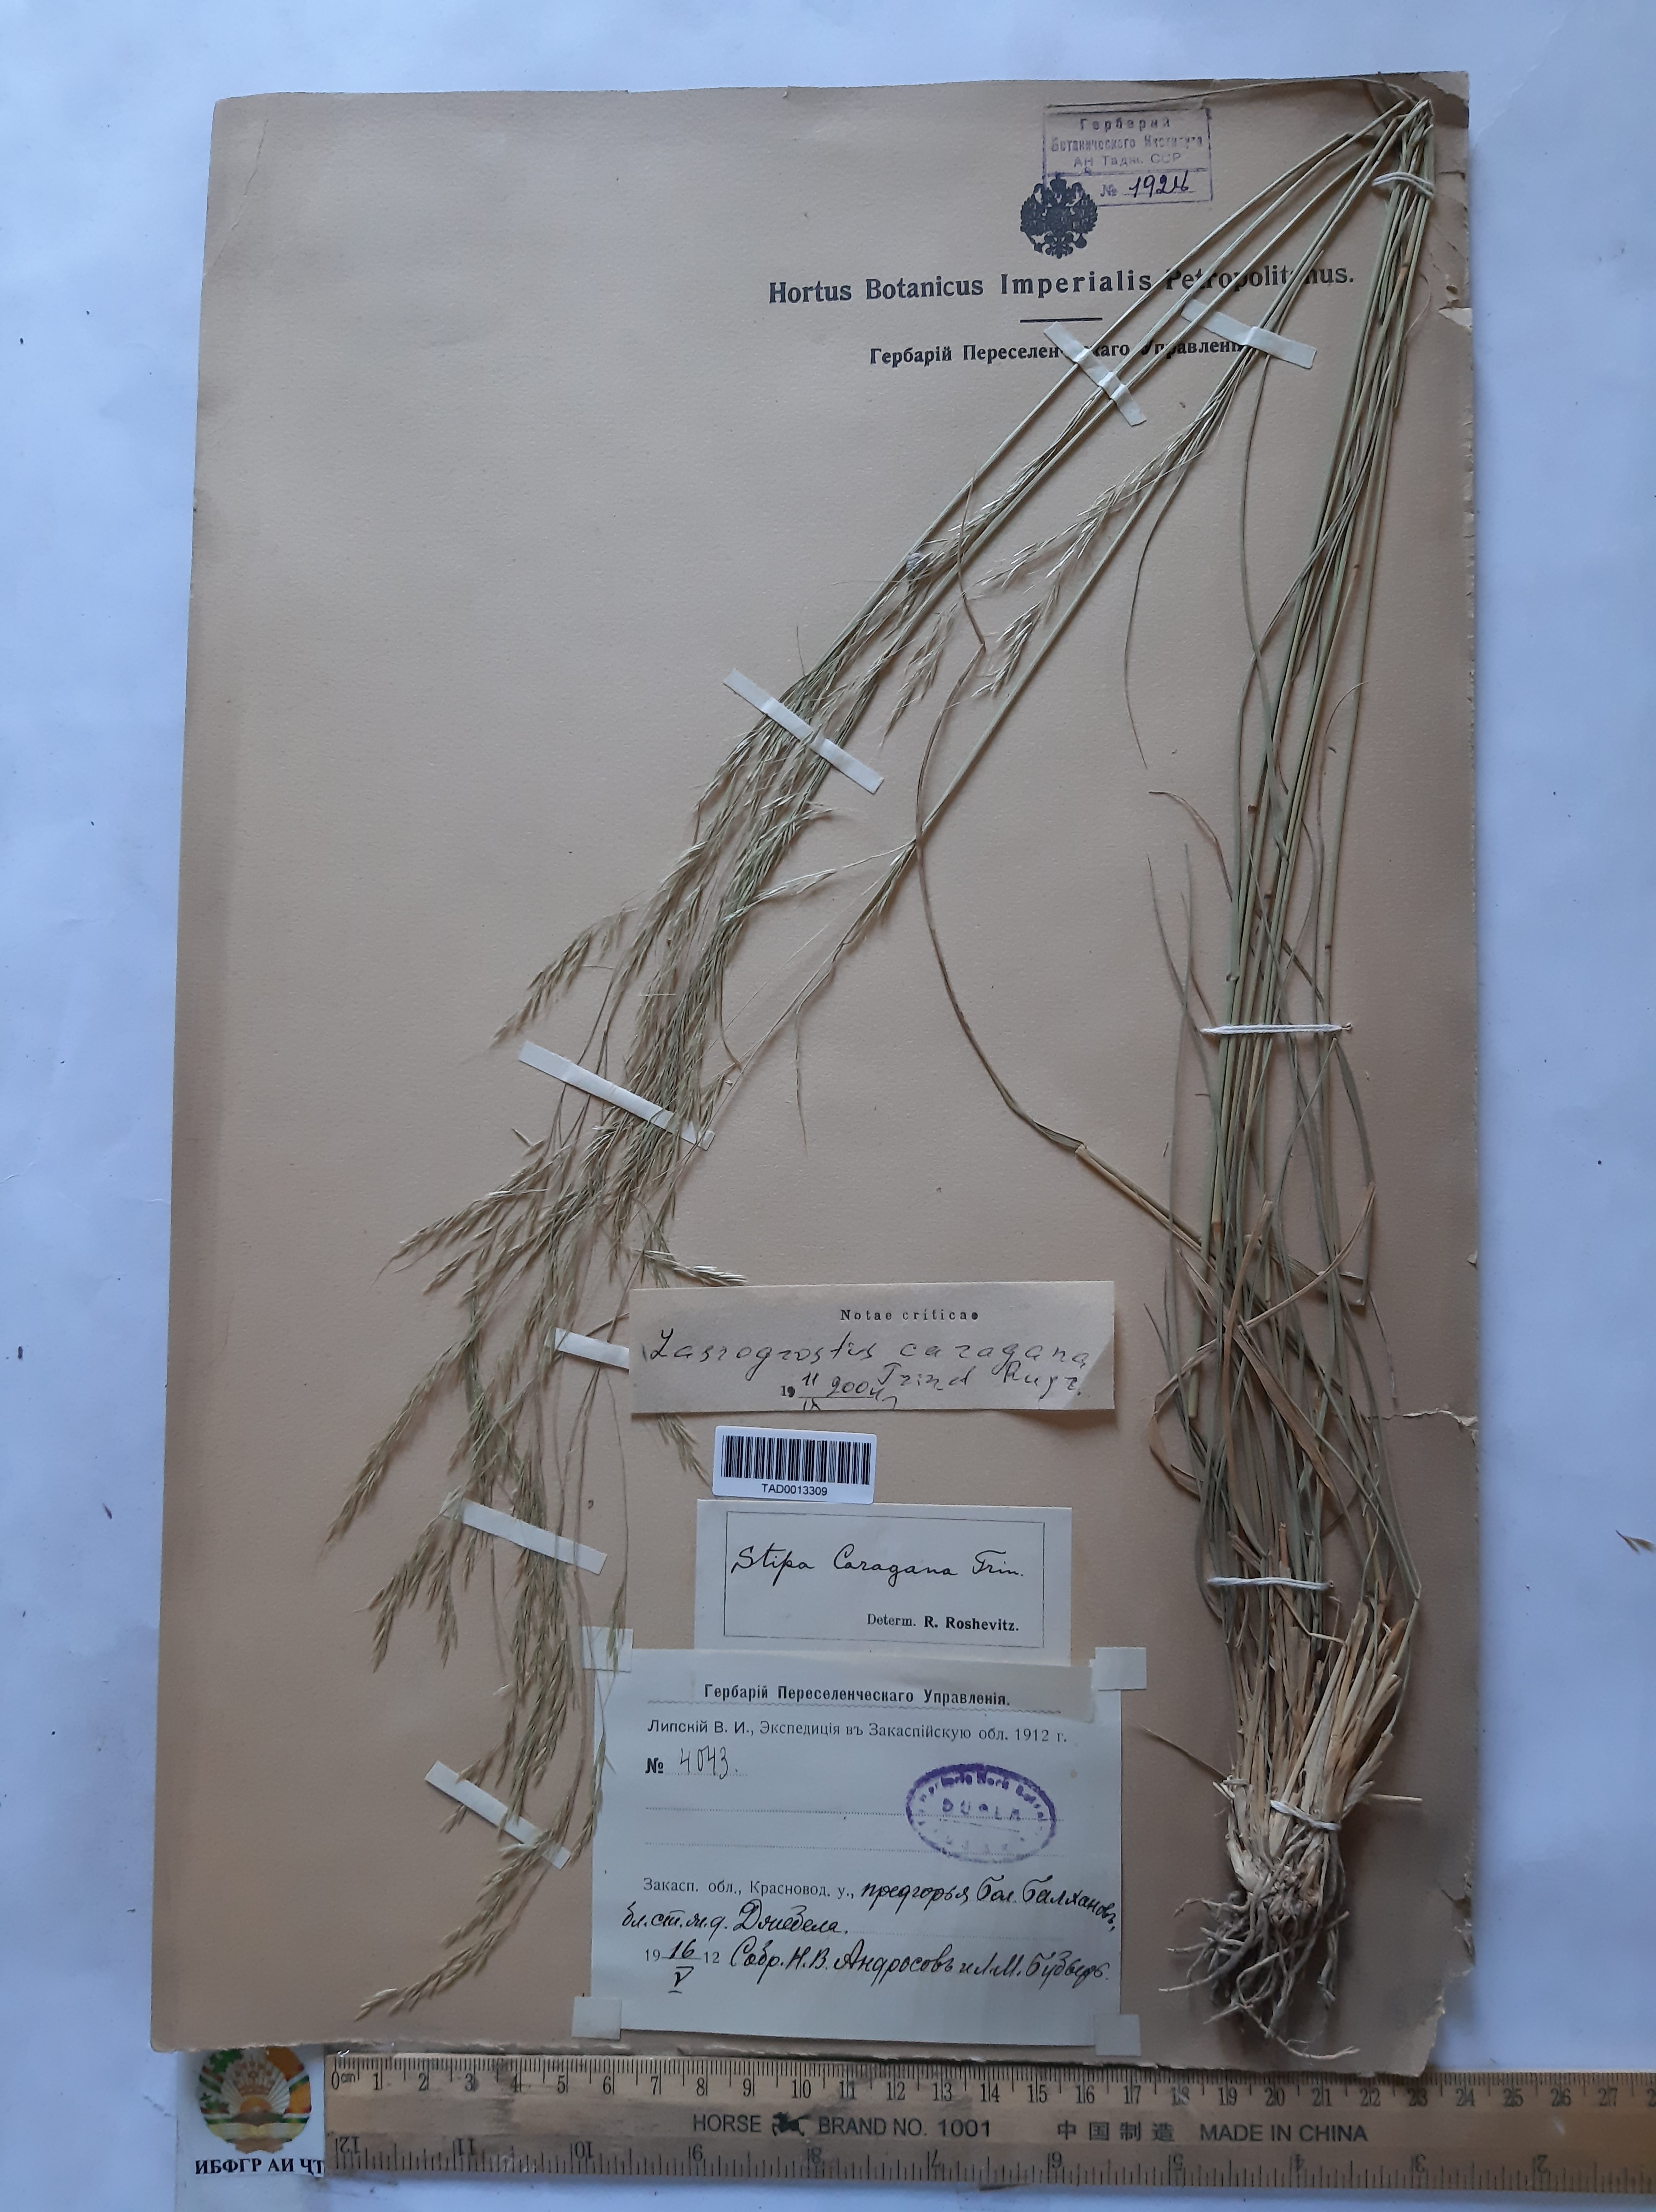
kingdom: Plantae
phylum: Tracheophyta
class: Liliopsida
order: Poales
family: Poaceae
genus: Stipa
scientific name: Stipa conferta
